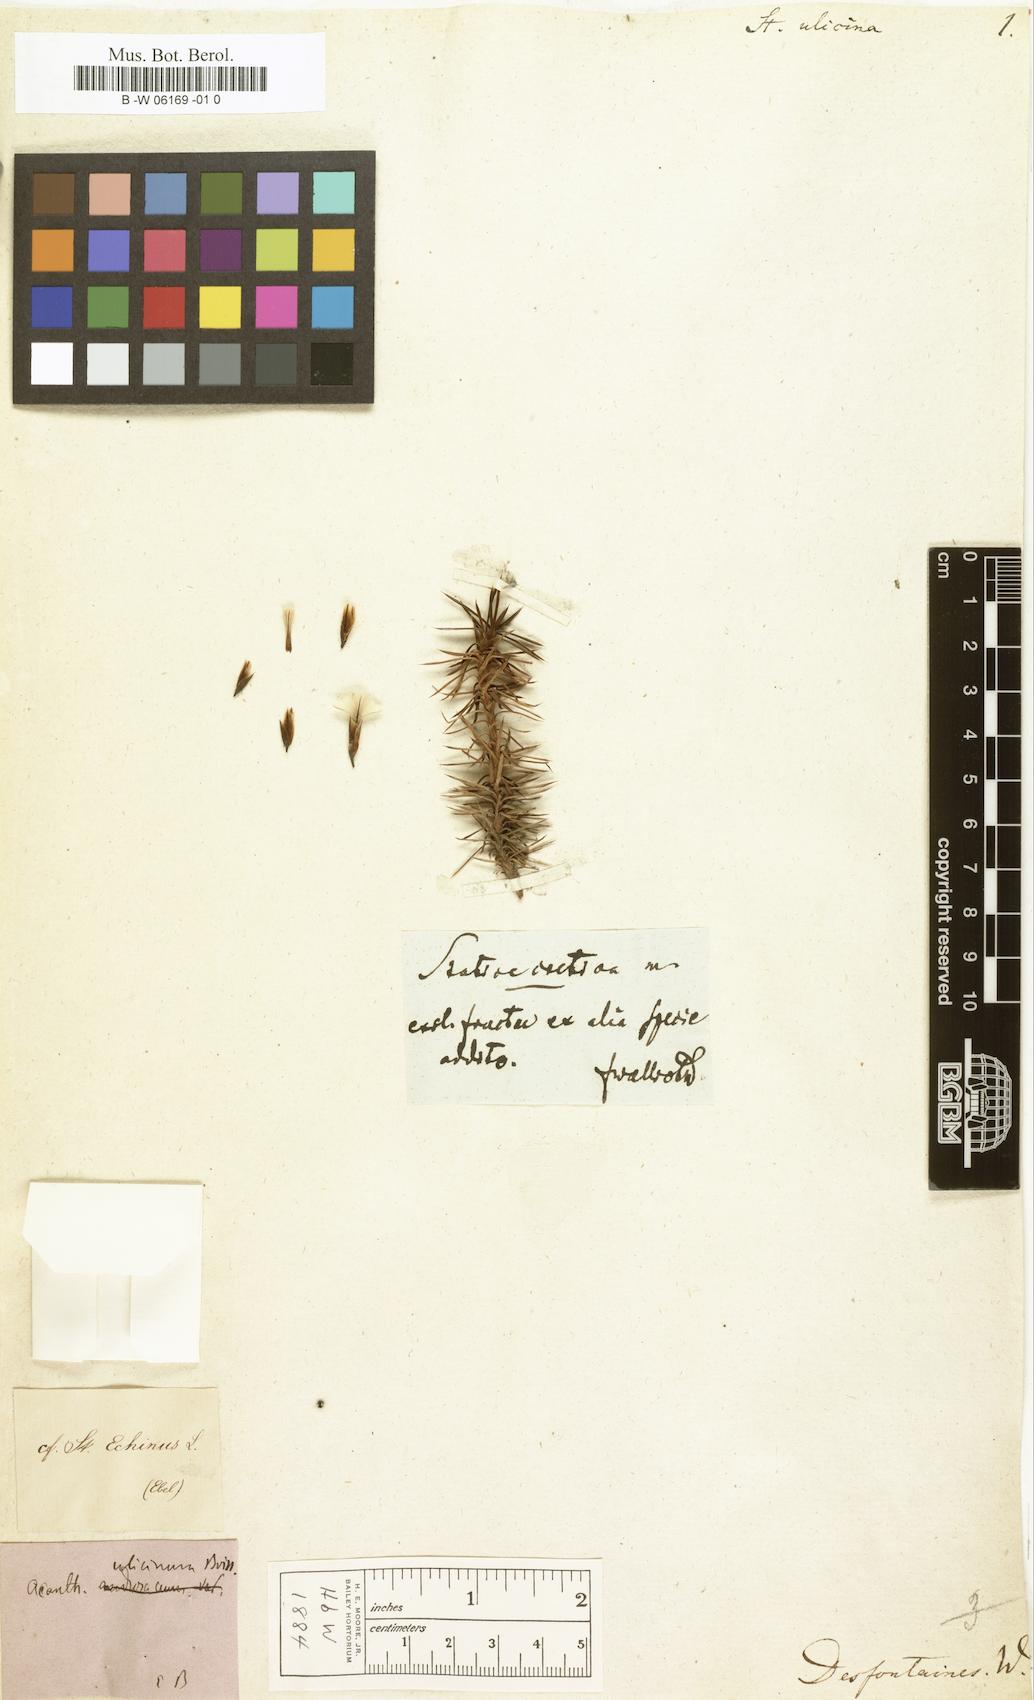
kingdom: Plantae
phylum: Tracheophyta
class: Magnoliopsida
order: Caryophyllales
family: Plumbaginaceae
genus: Acantholimon
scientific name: Acantholimon ulicinum
